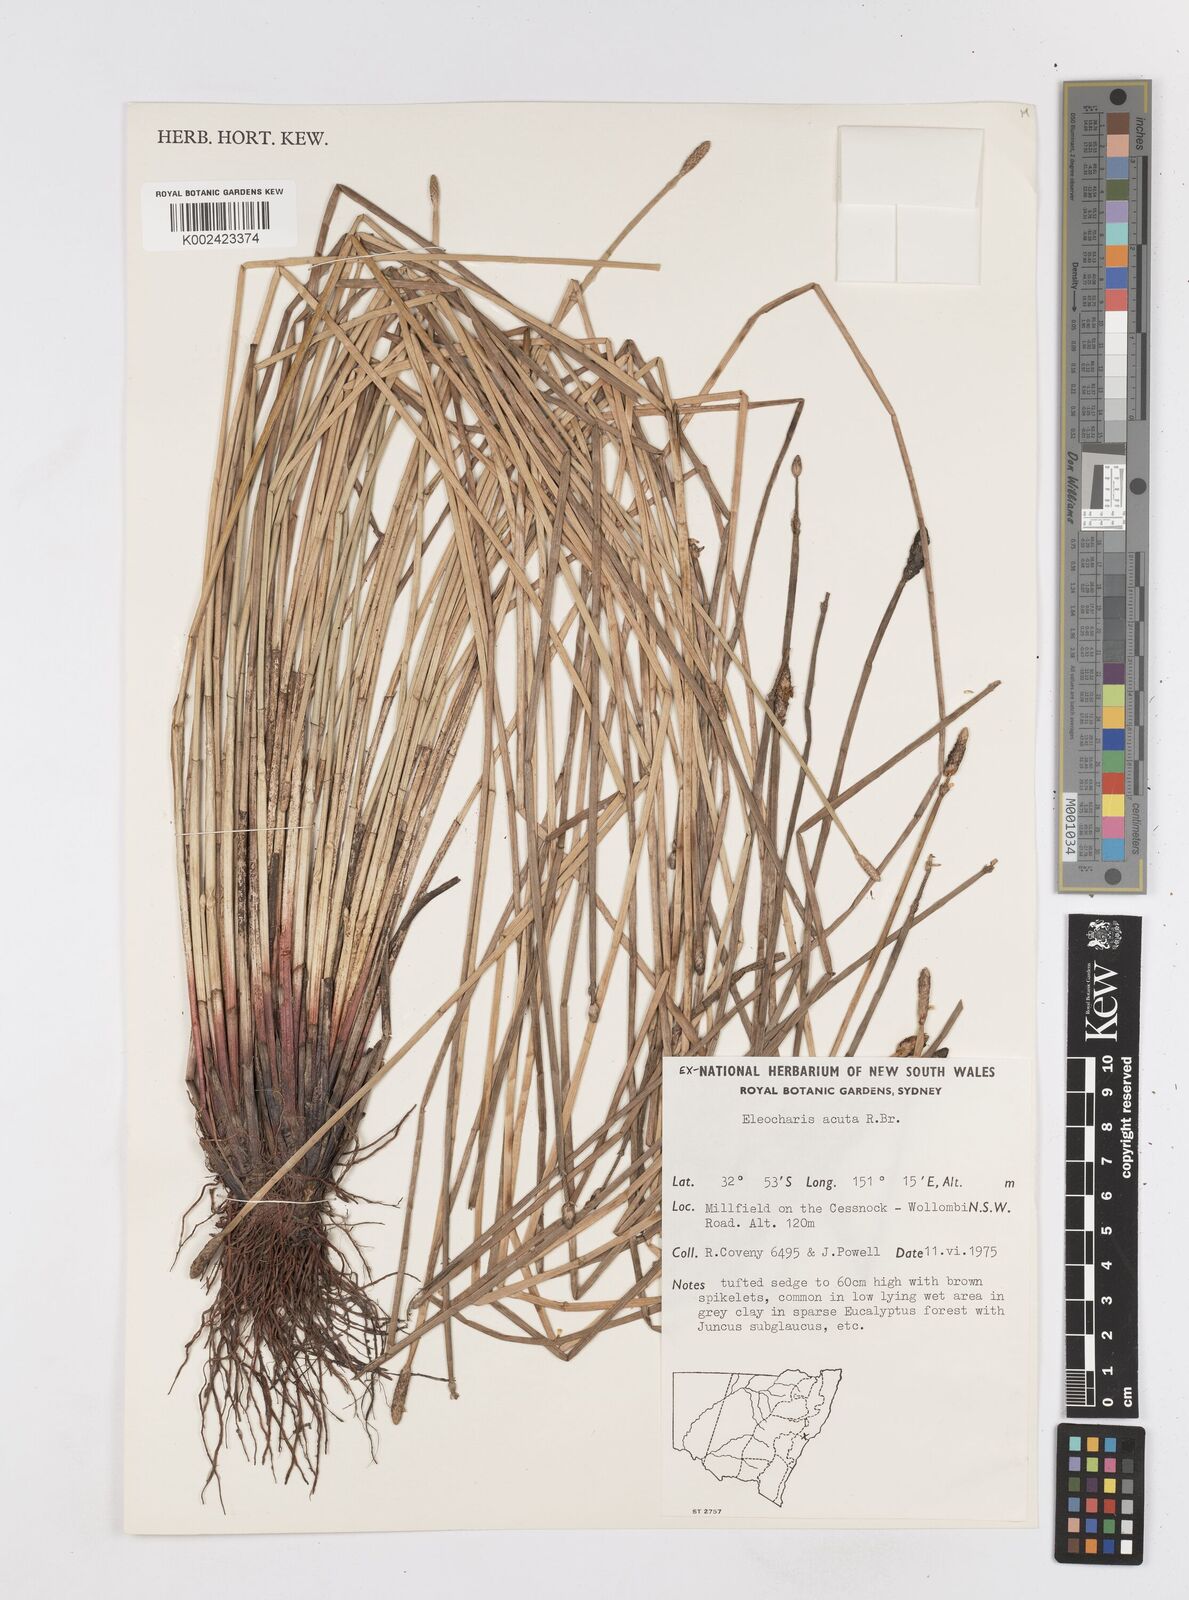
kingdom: Plantae
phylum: Tracheophyta
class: Liliopsida
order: Poales
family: Cyperaceae
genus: Eleocharis
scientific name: Eleocharis acuta
